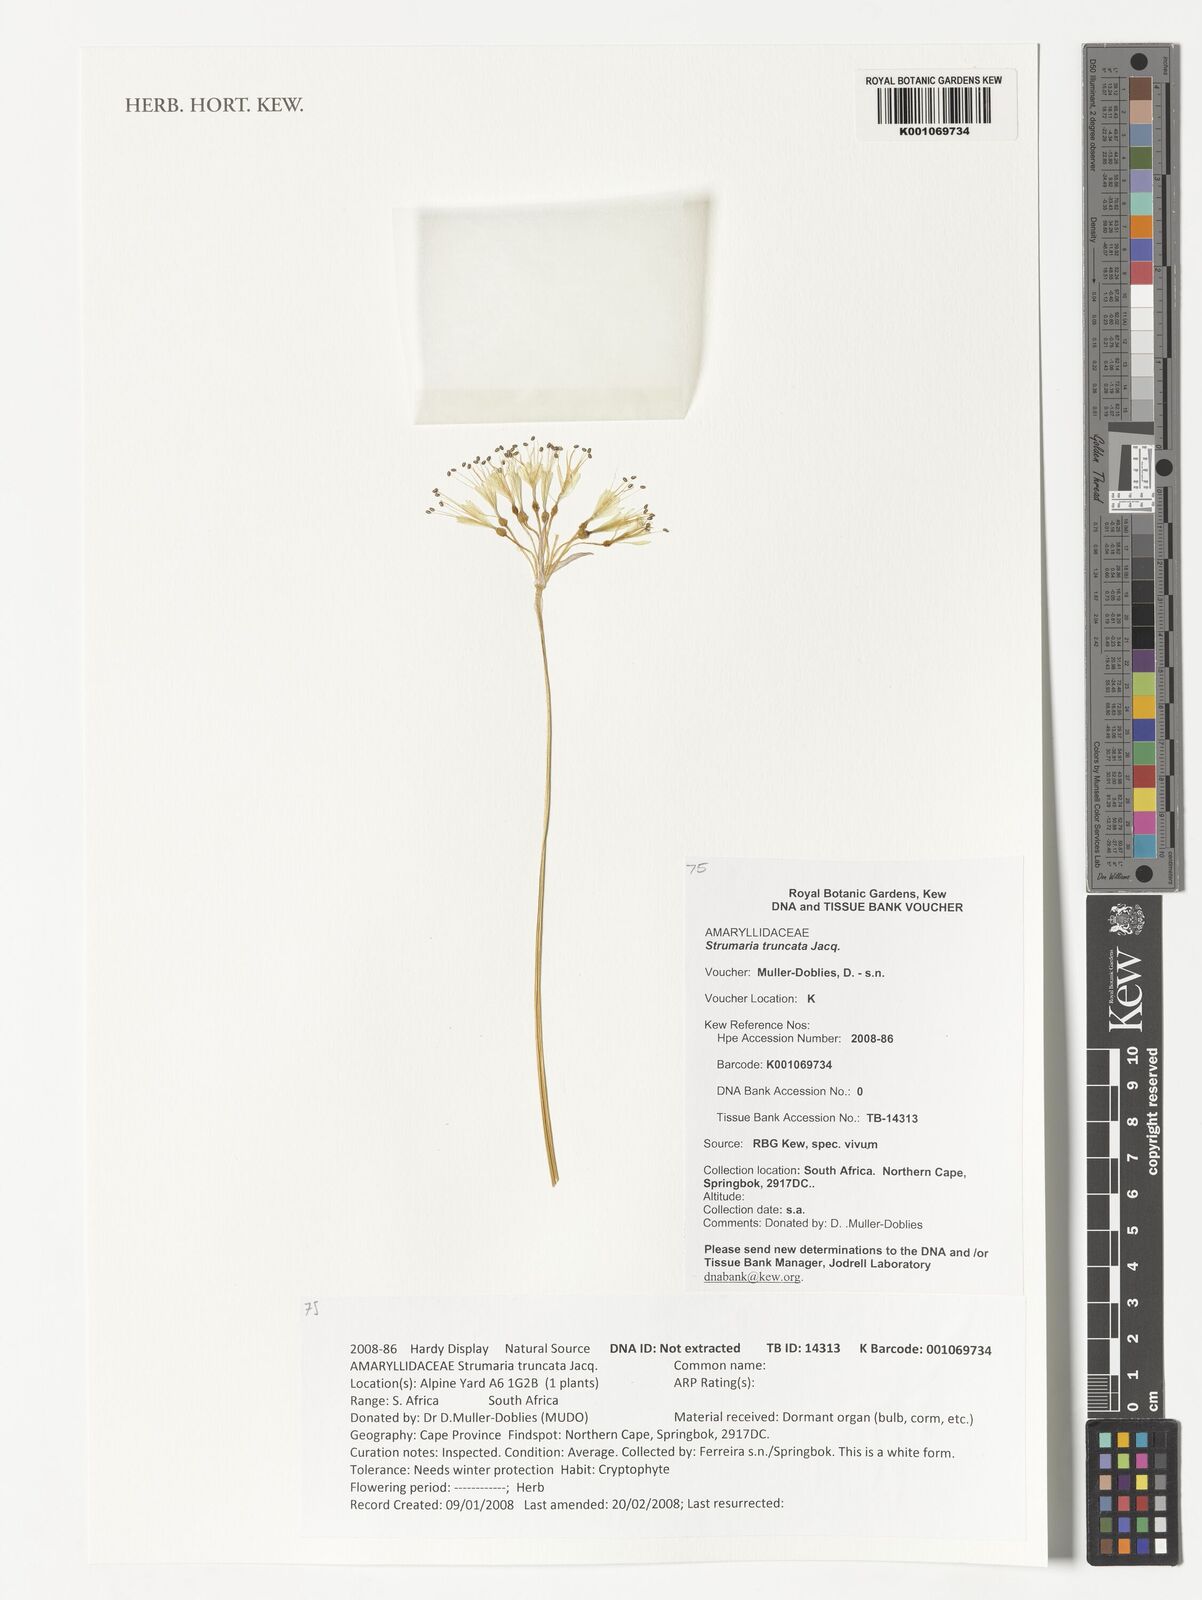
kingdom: Plantae
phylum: Tracheophyta
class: Liliopsida
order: Asparagales
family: Amaryllidaceae
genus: Strumaria
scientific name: Strumaria truncata
